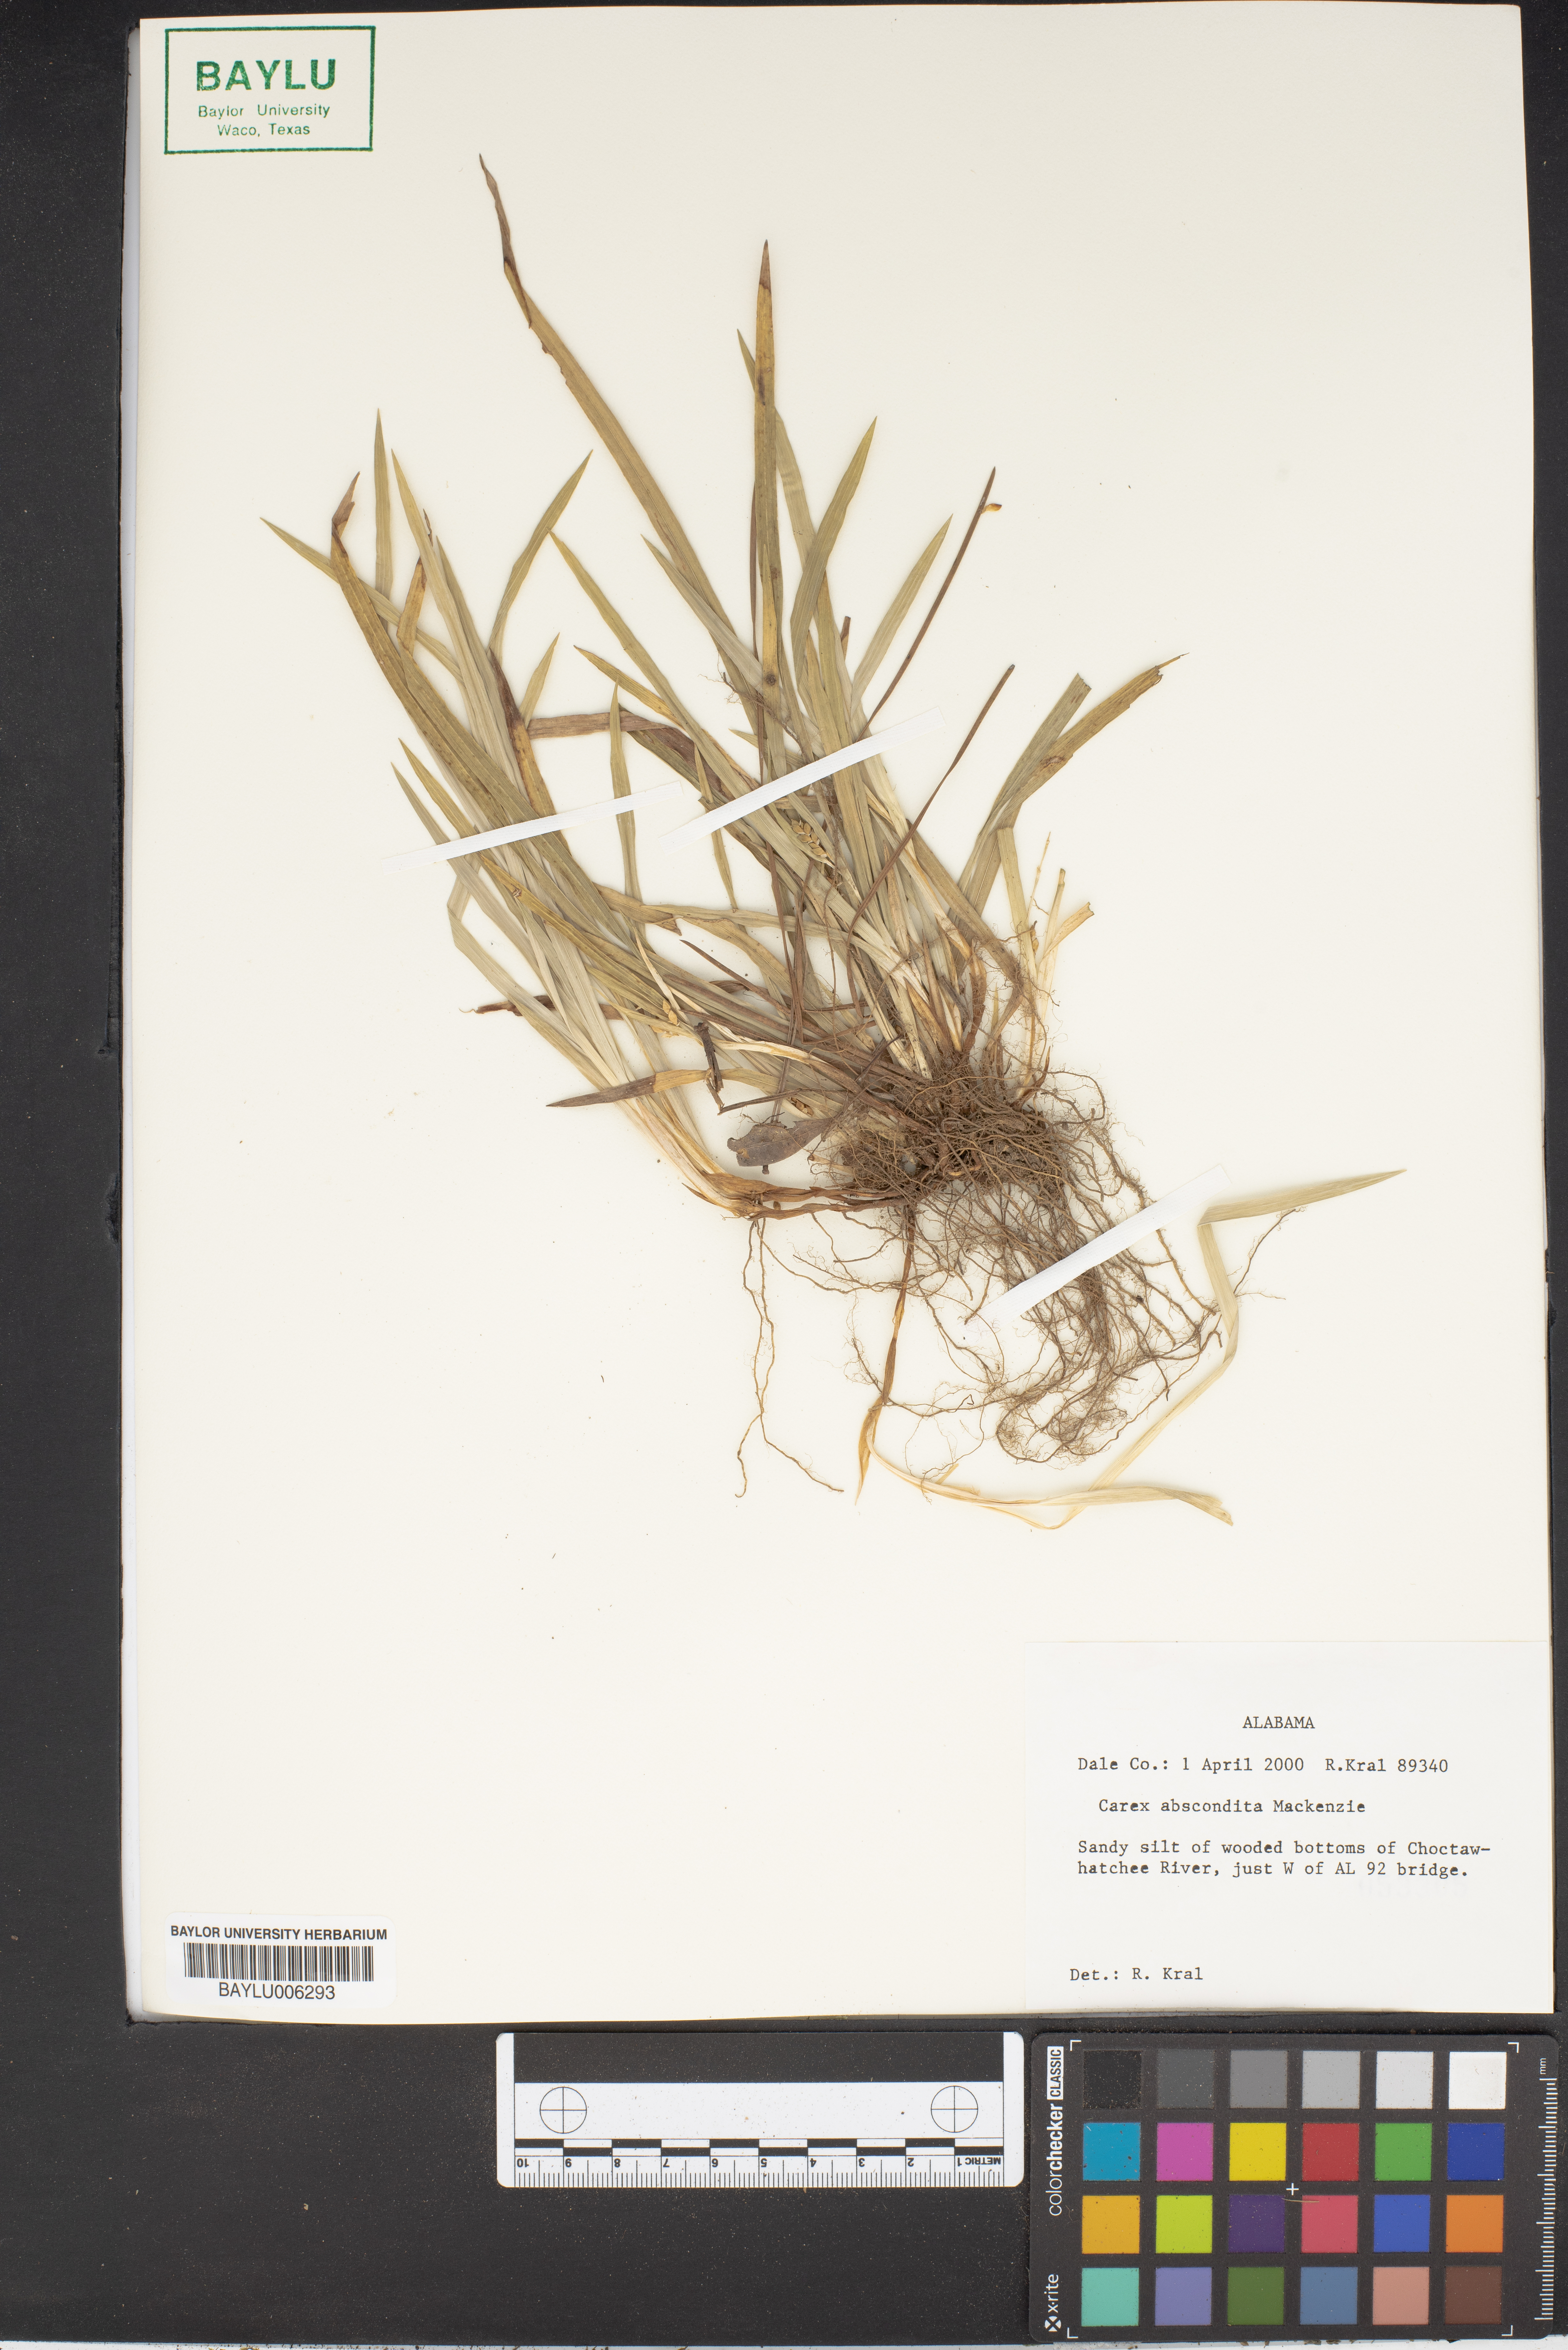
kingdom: Plantae
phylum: Tracheophyta
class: Liliopsida
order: Poales
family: Cyperaceae
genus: Carex
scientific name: Carex abscondita
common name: Thicket sedge
